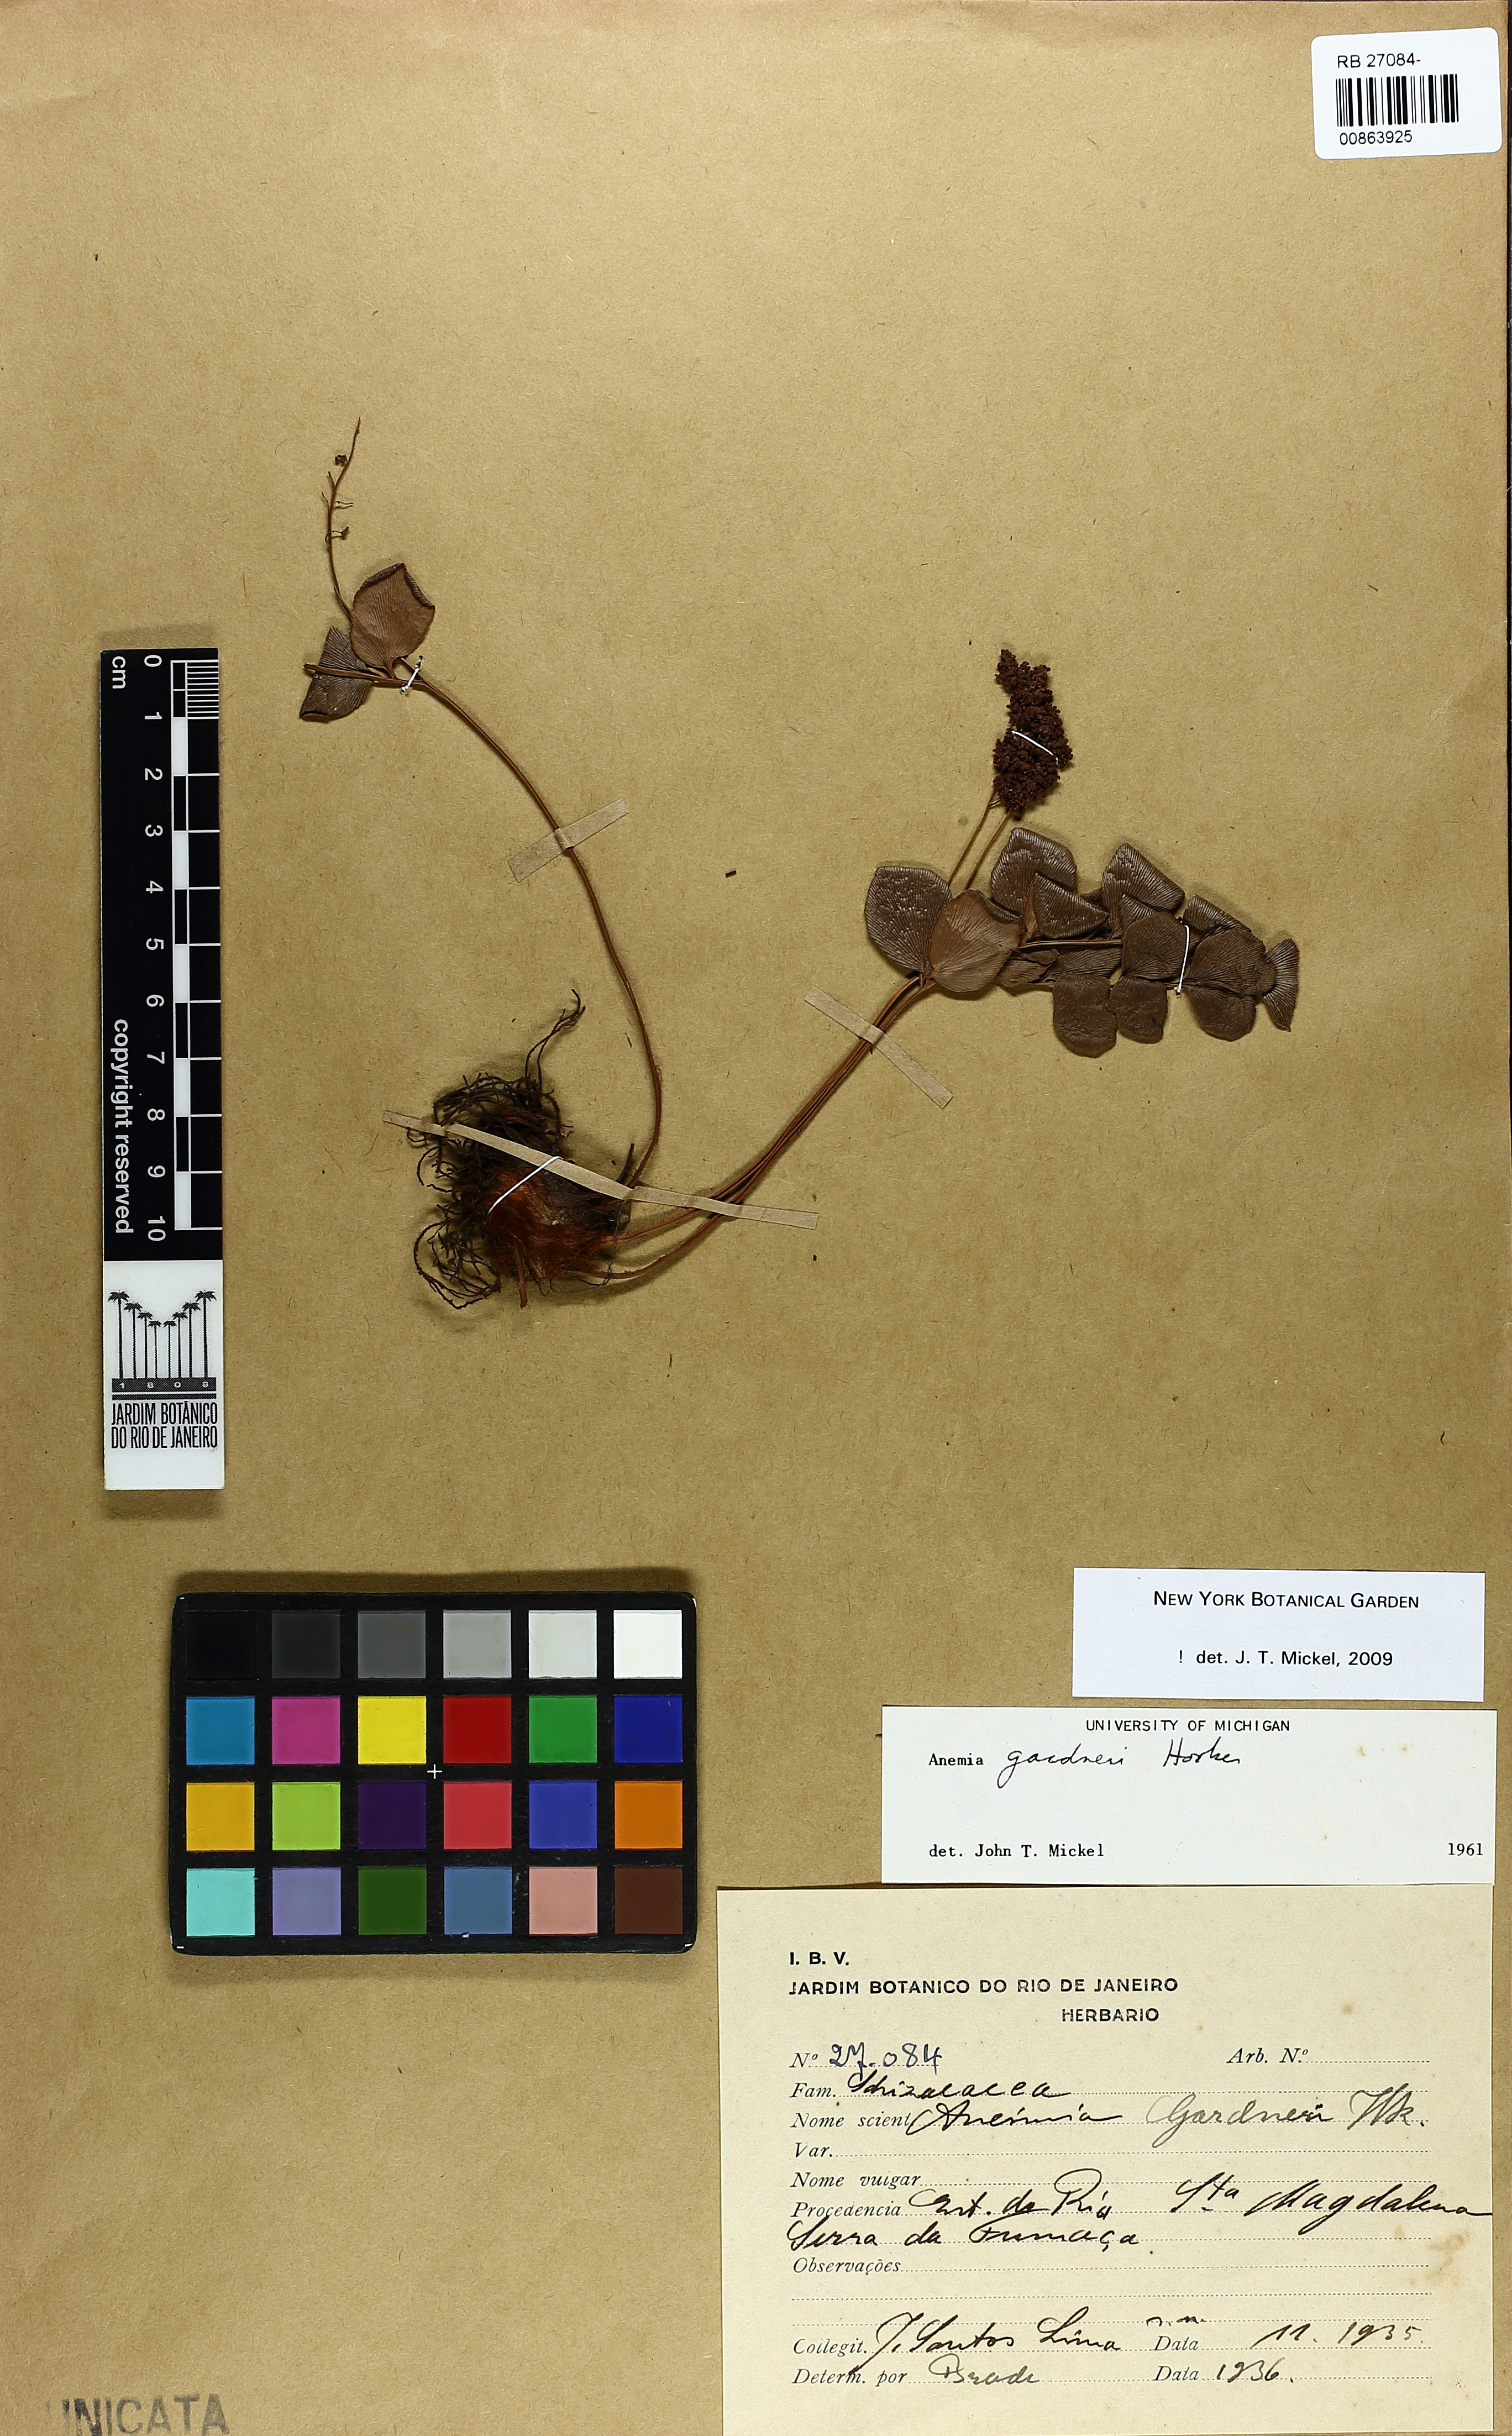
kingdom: Plantae
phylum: Tracheophyta
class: Polypodiopsida
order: Schizaeales
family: Anemiaceae
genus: Anemia
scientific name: Anemia gardneri
